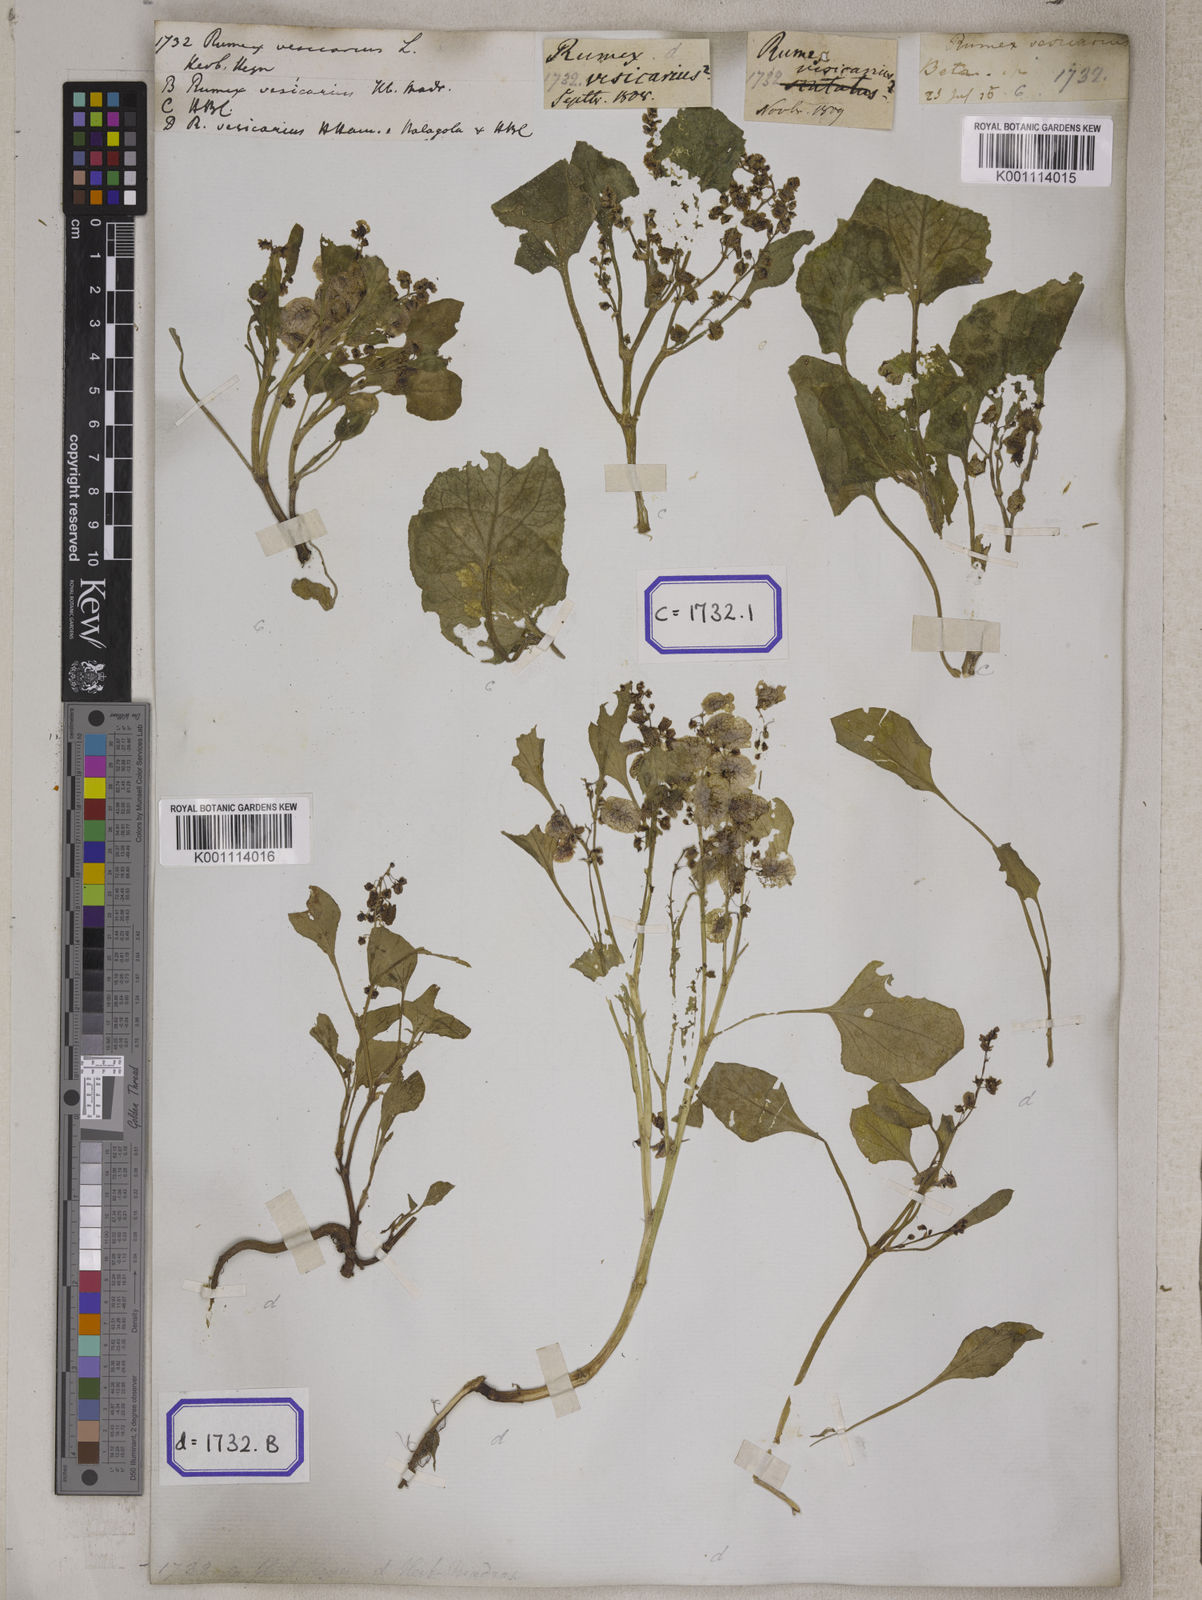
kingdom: Plantae
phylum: Tracheophyta
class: Magnoliopsida
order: Caryophyllales
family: Polygonaceae
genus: Rumex
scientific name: Rumex
